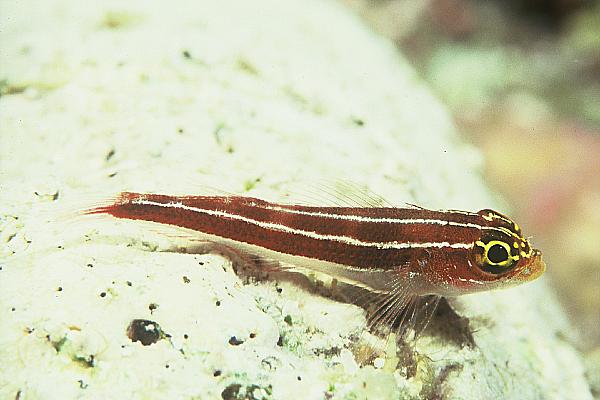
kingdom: Animalia
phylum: Chordata
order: Perciformes
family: Tripterygiidae
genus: Helcogramma
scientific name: Helcogramma striata
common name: Striped threefin
